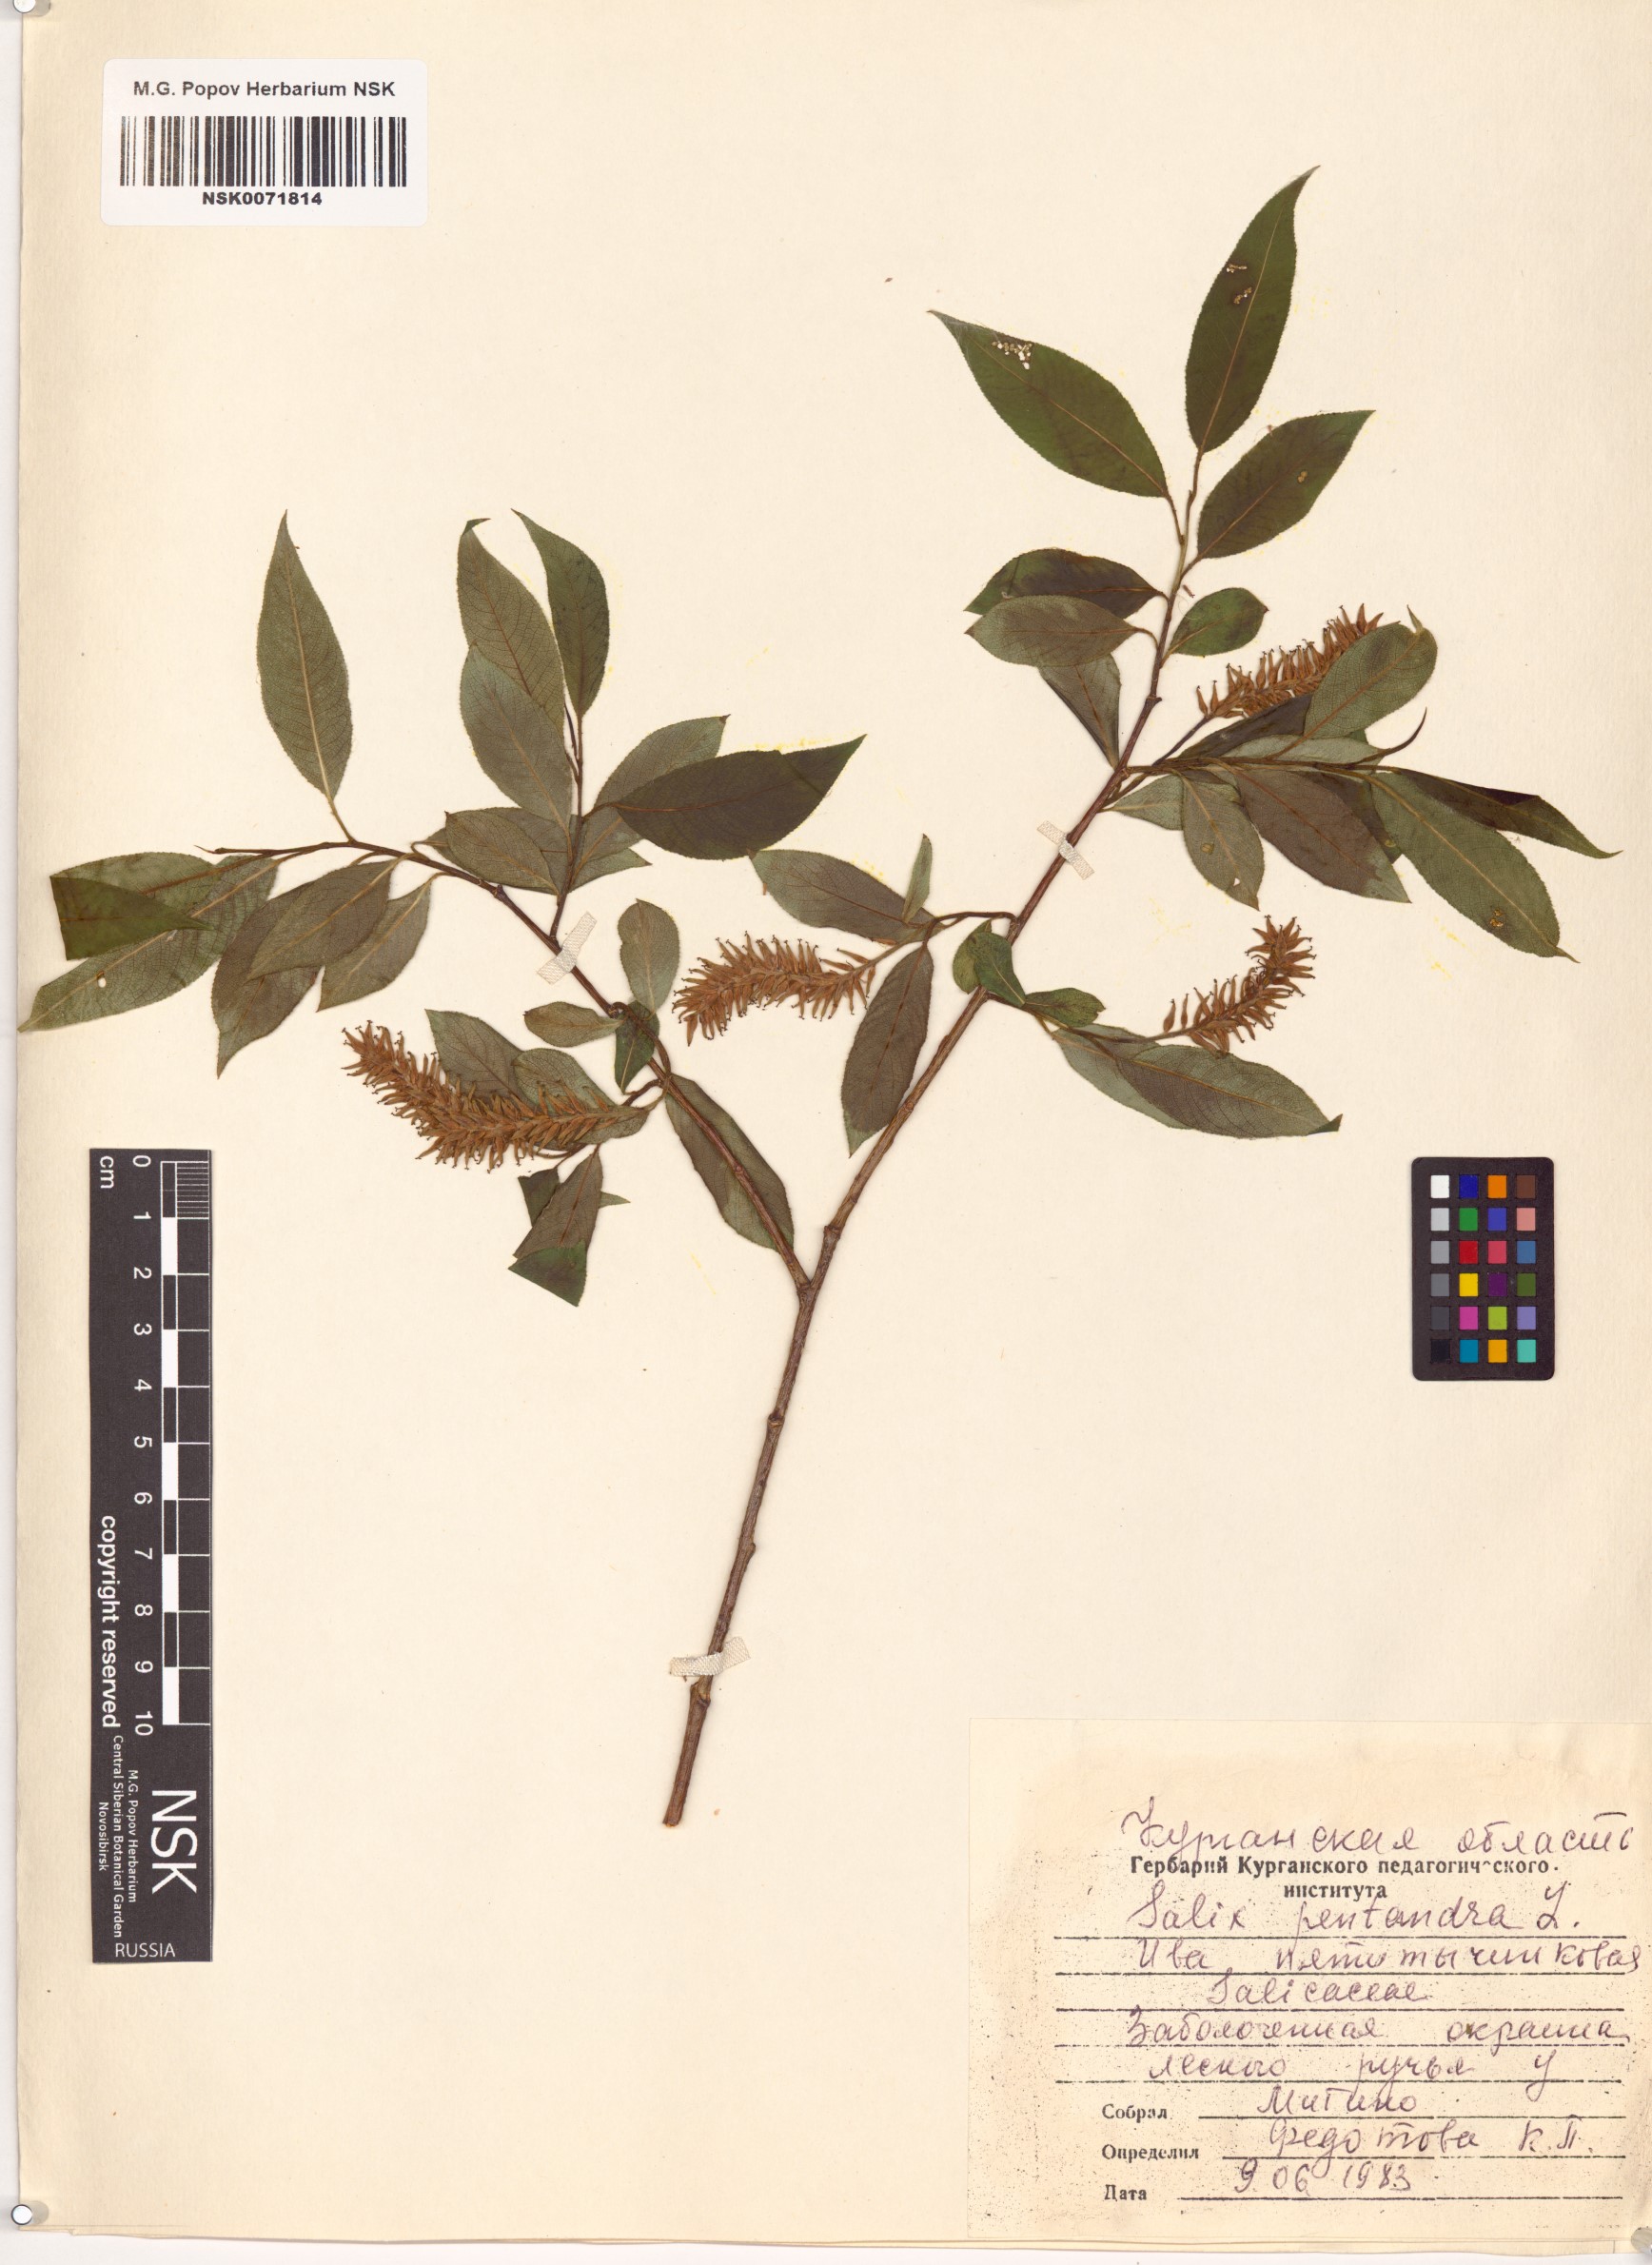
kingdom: Plantae
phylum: Tracheophyta
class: Magnoliopsida
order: Malpighiales
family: Salicaceae
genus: Salix
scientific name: Salix pentandra
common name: Bay willow
